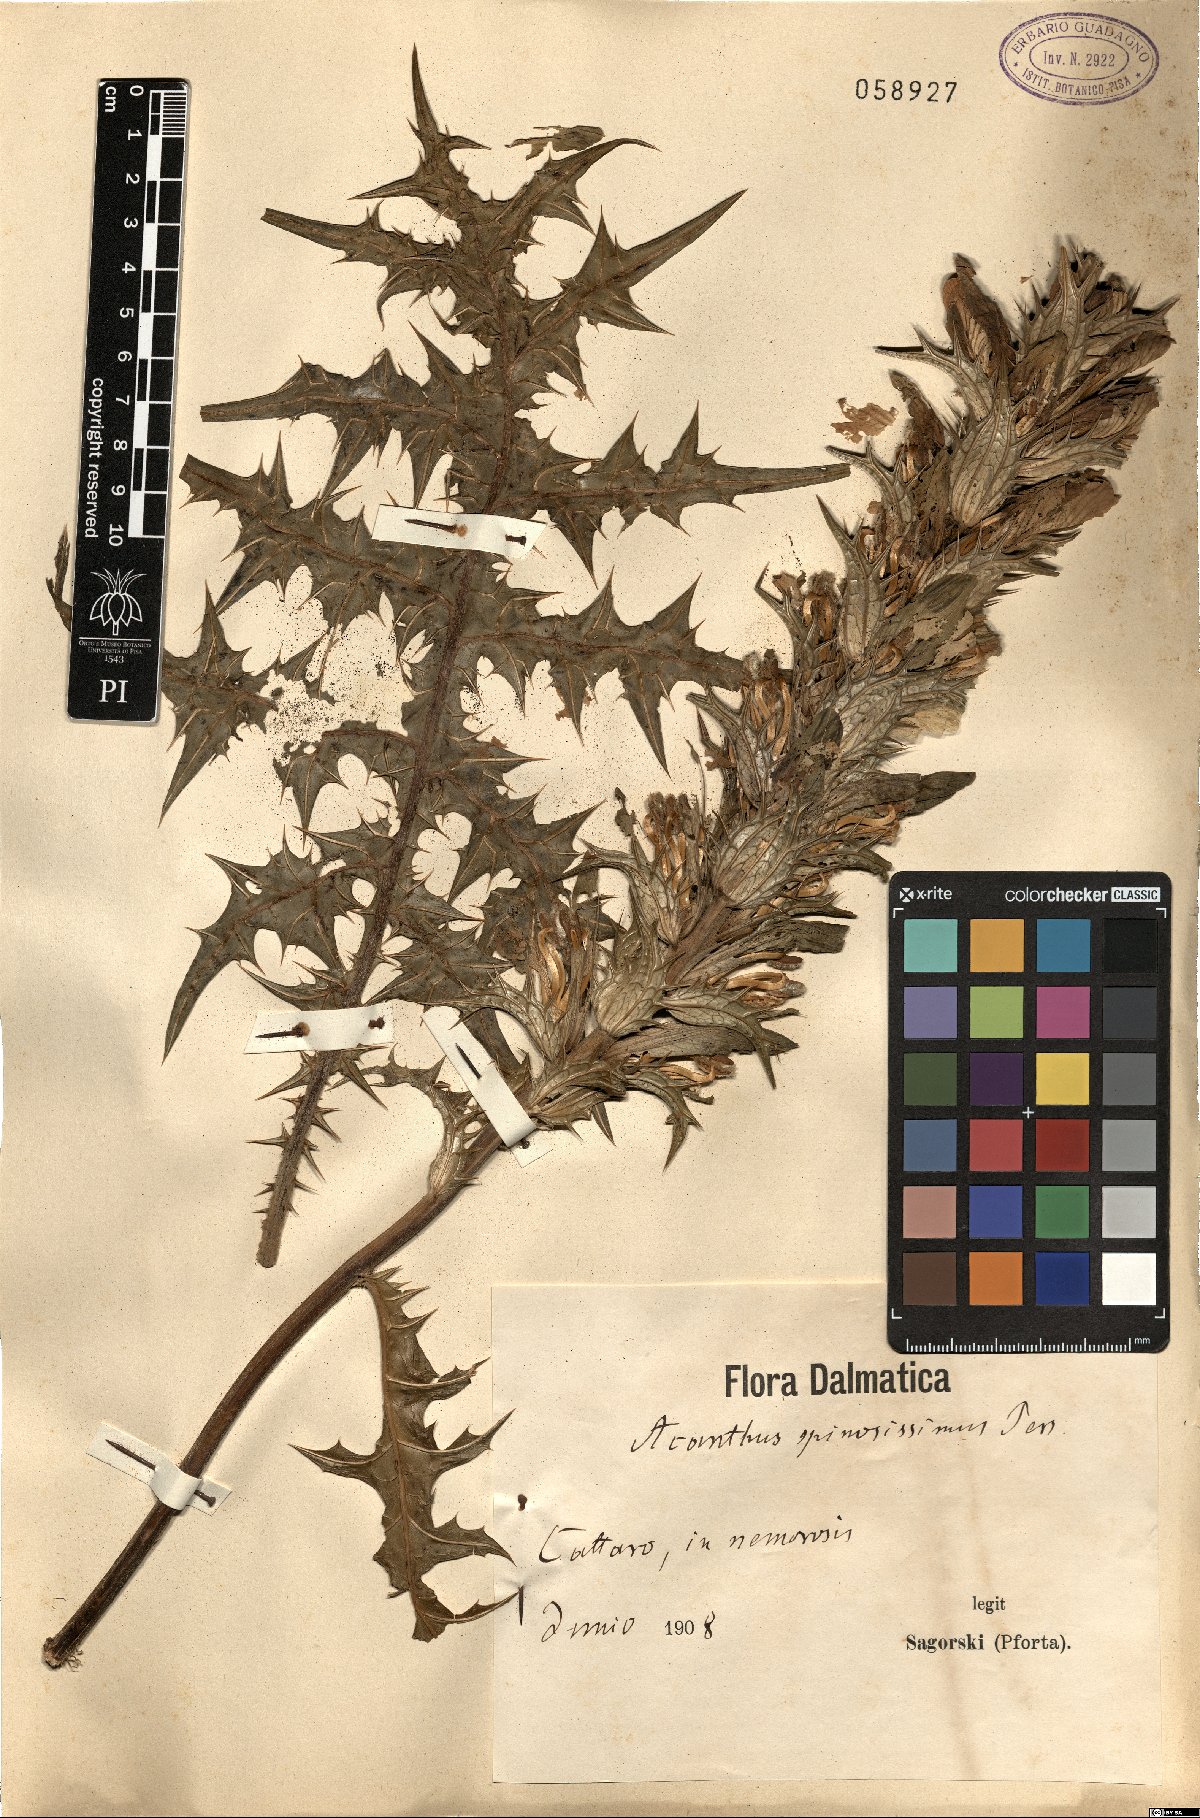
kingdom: Plantae
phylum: Tracheophyta
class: Magnoliopsida
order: Lamiales
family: Acanthaceae
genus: Acanthus
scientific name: Acanthus spinosus
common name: Spiny bear's-breech
